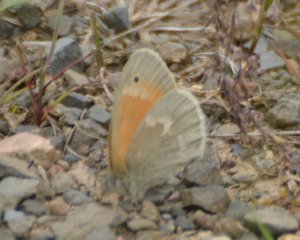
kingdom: Animalia
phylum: Arthropoda
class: Insecta
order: Lepidoptera
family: Nymphalidae
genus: Coenonympha
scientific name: Coenonympha tullia
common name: Large Heath
